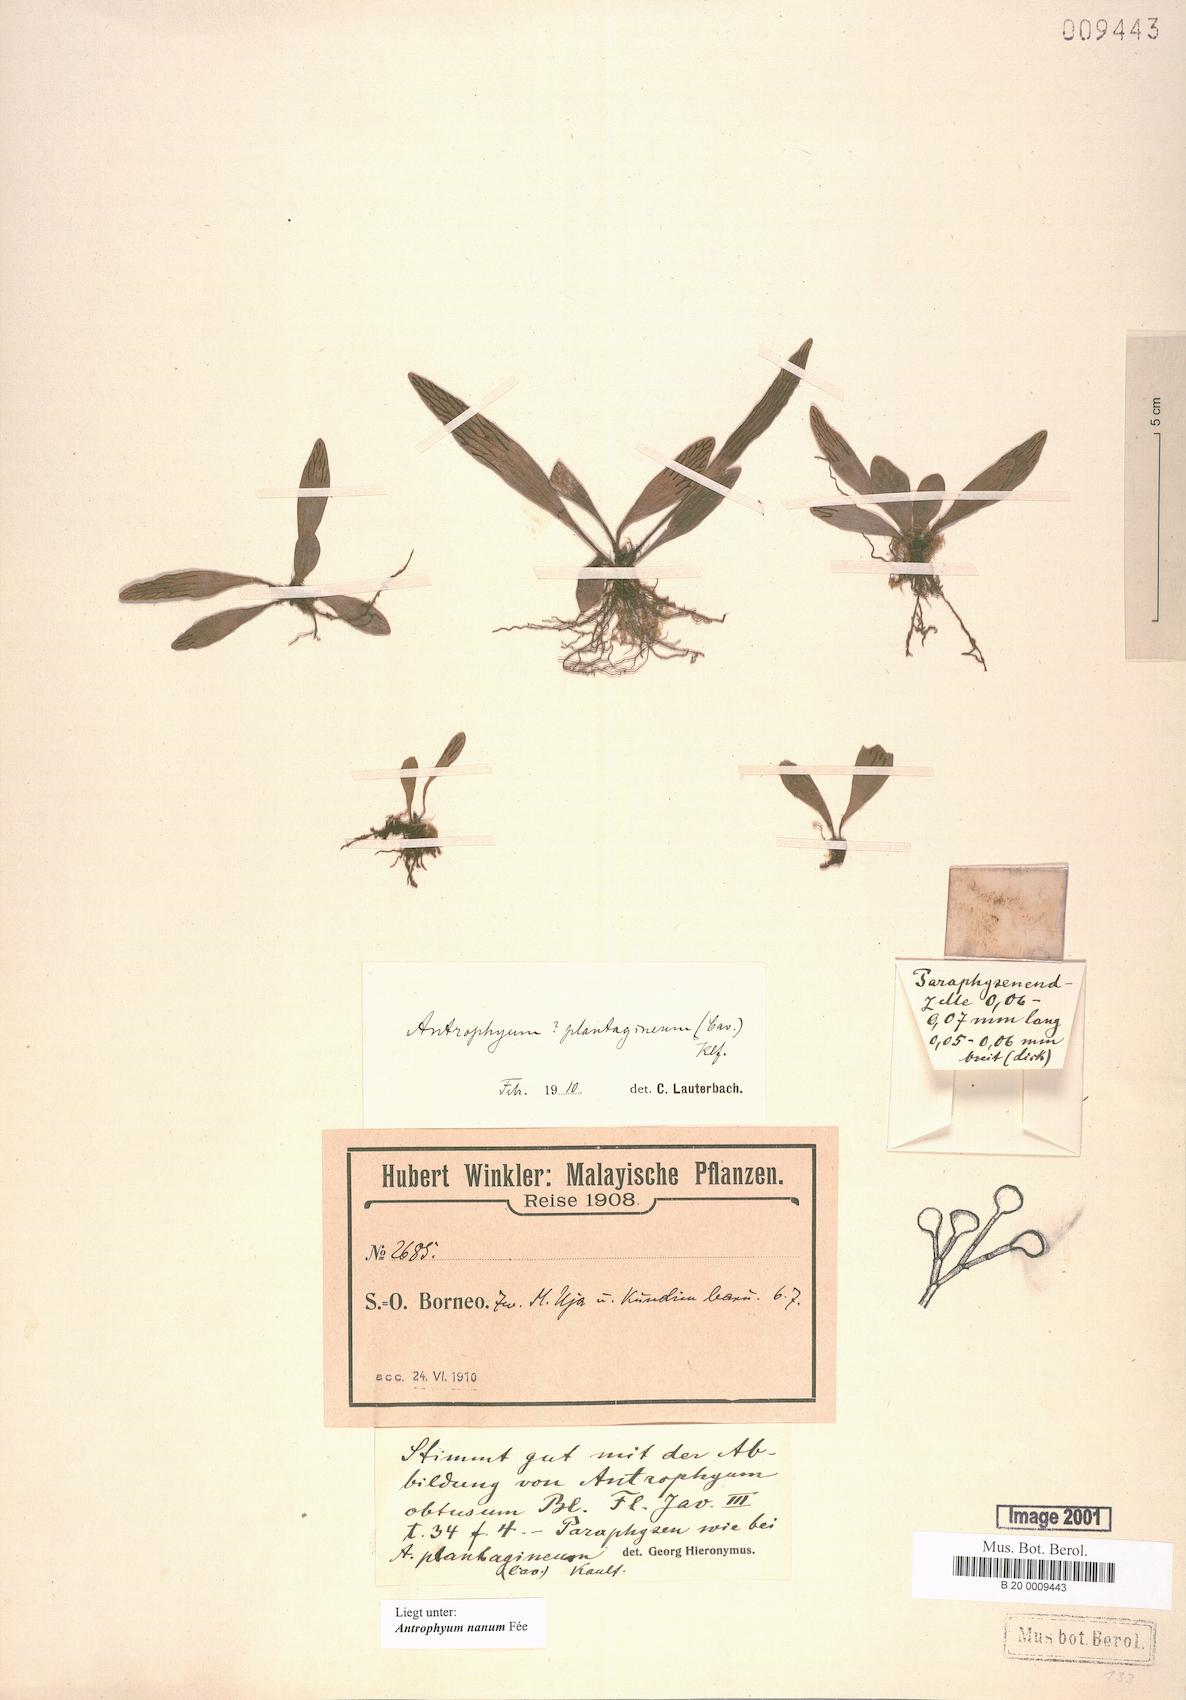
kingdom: Plantae
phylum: Tracheophyta
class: Polypodiopsida
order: Polypodiales
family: Pteridaceae
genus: Antrophyum
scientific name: Antrophyum callifolium
